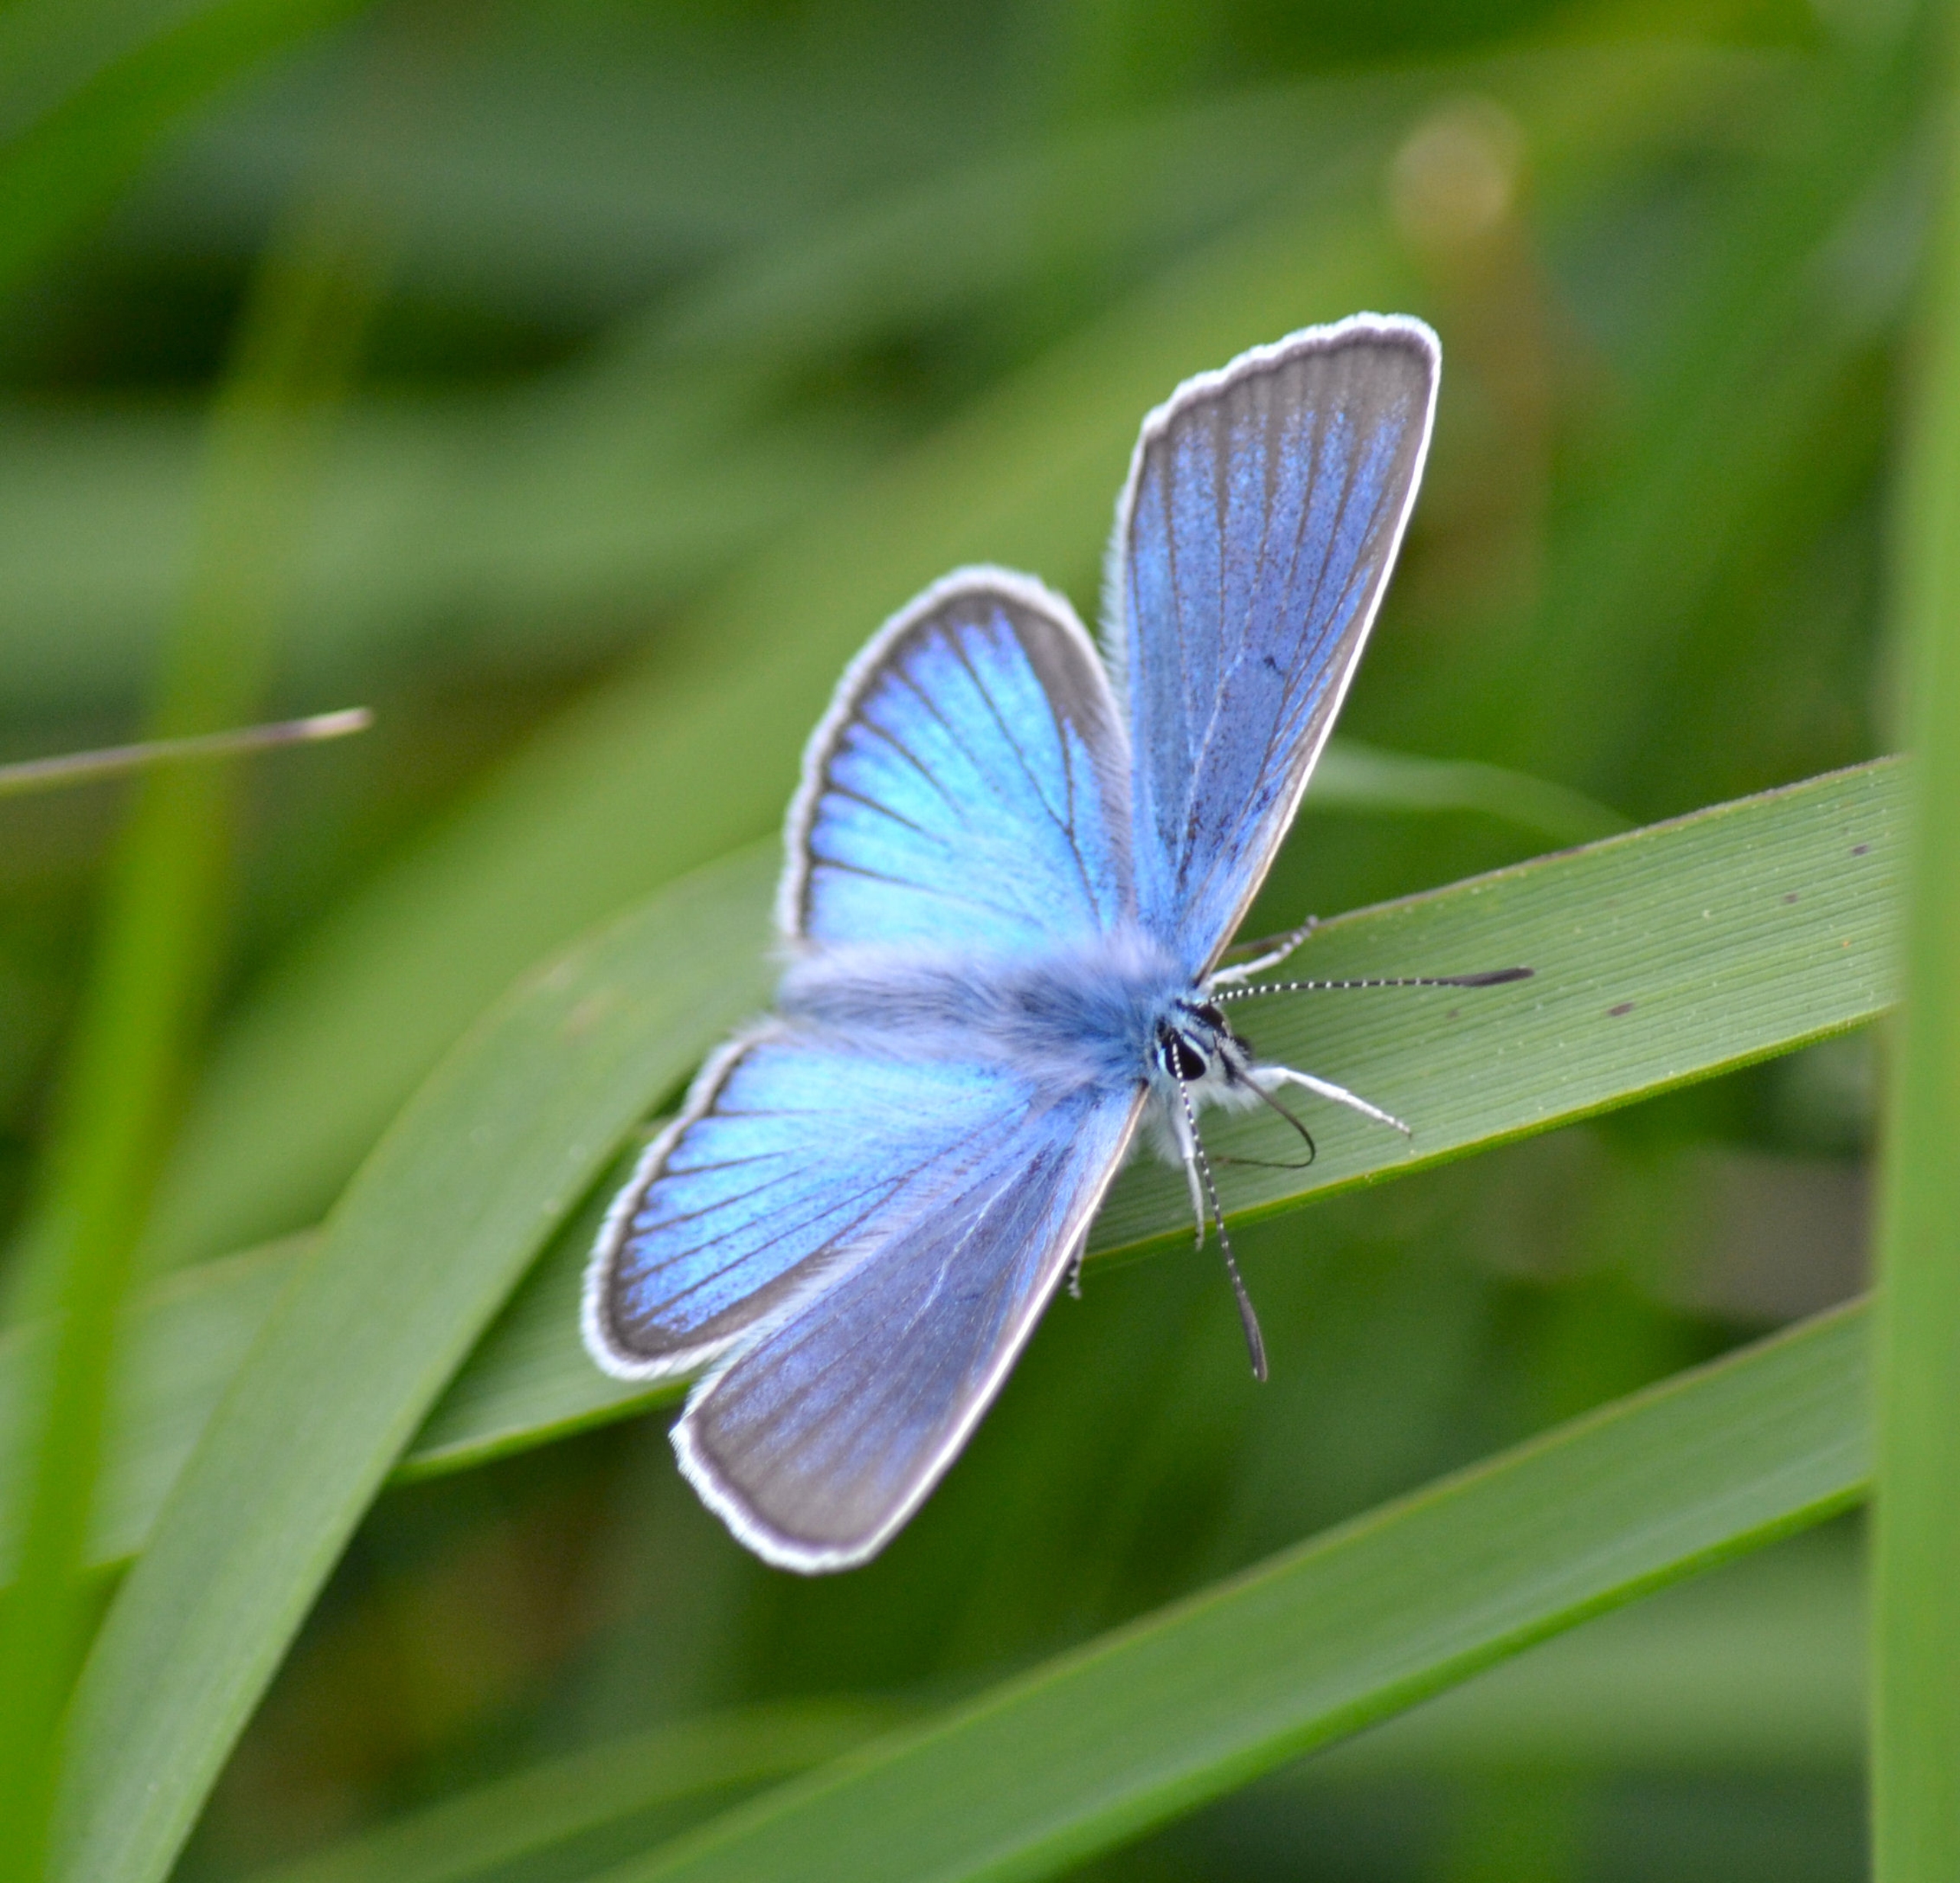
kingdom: Animalia
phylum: Arthropoda
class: Insecta
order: Lepidoptera
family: Lycaenidae
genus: Plebejus
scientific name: Plebejus amanda
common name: Isblåfugl
